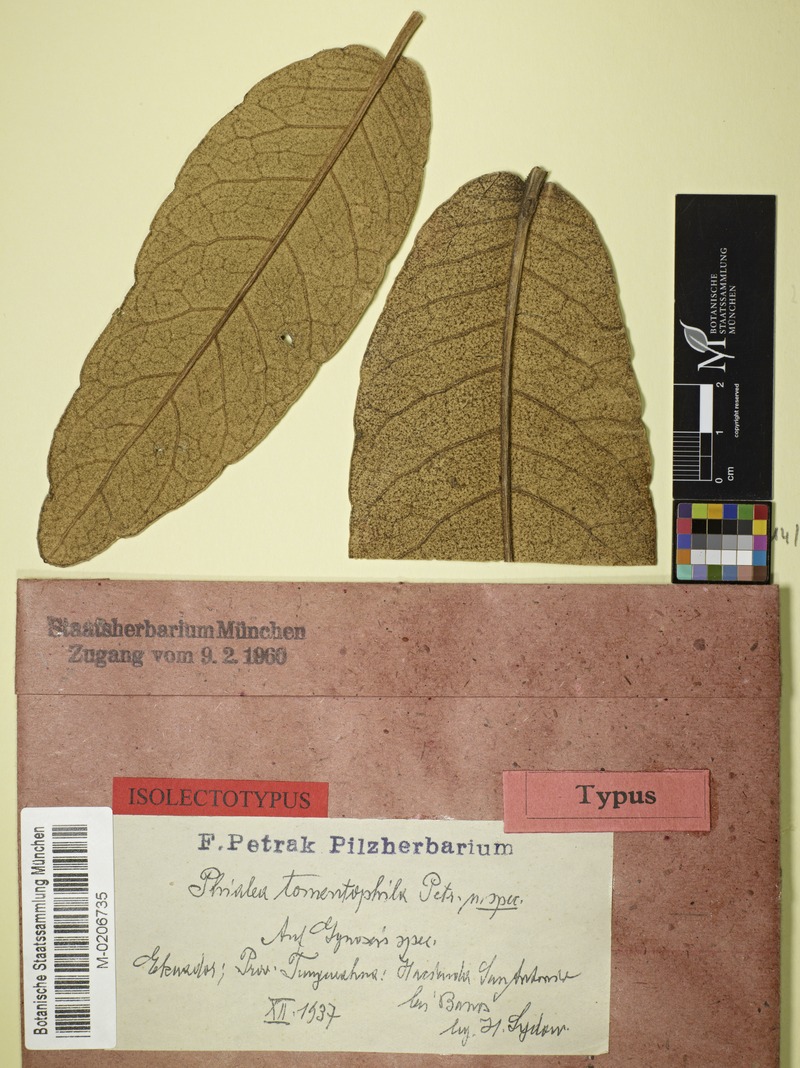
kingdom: Fungi
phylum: Ascomycota
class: Leotiomycetes
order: Helotiales
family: Hyaloscyphaceae
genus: Phialea
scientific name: Phialea tomentophila
